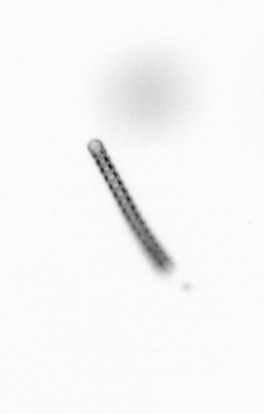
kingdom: Chromista
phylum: Ochrophyta
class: Bacillariophyceae
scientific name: Bacillariophyceae
